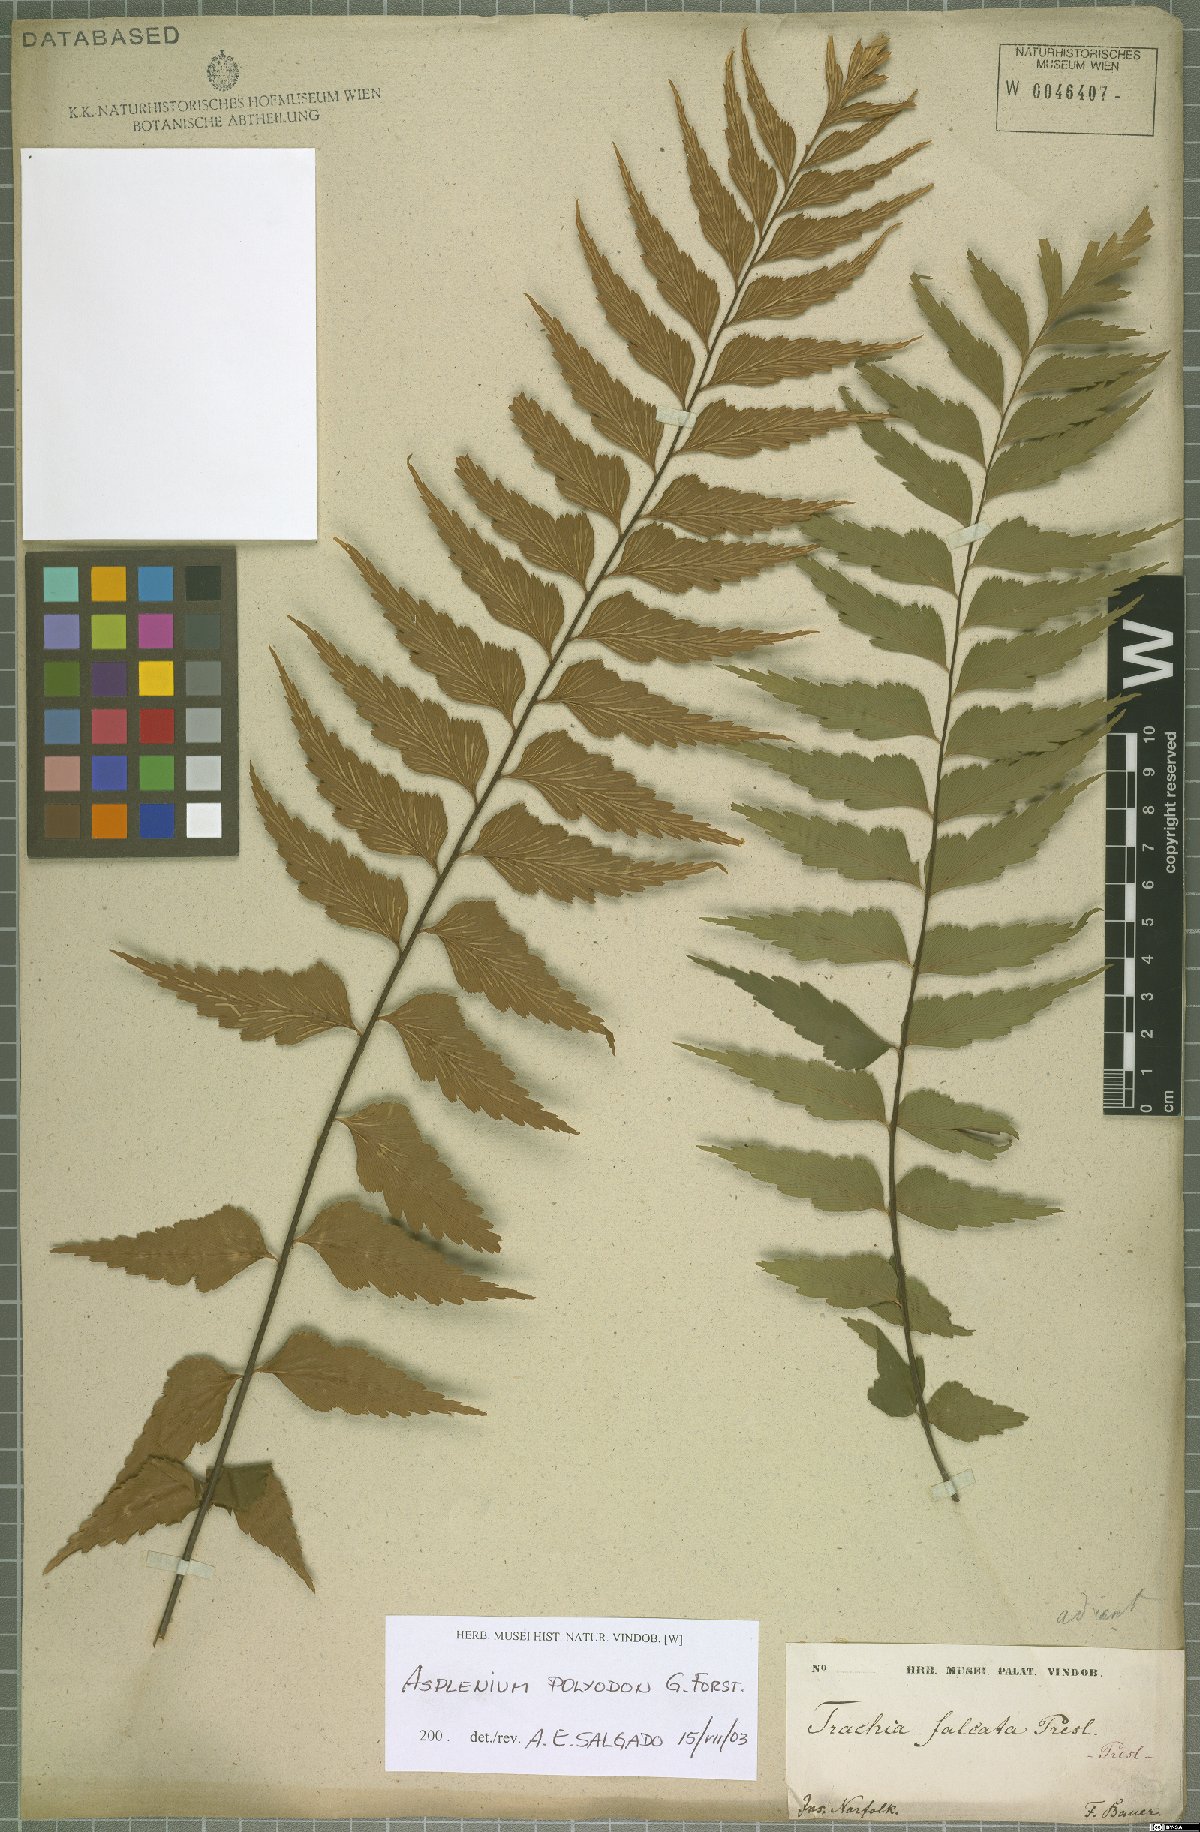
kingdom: Plantae
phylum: Tracheophyta
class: Polypodiopsida
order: Polypodiales
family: Aspleniaceae
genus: Asplenium
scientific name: Asplenium polyodon
